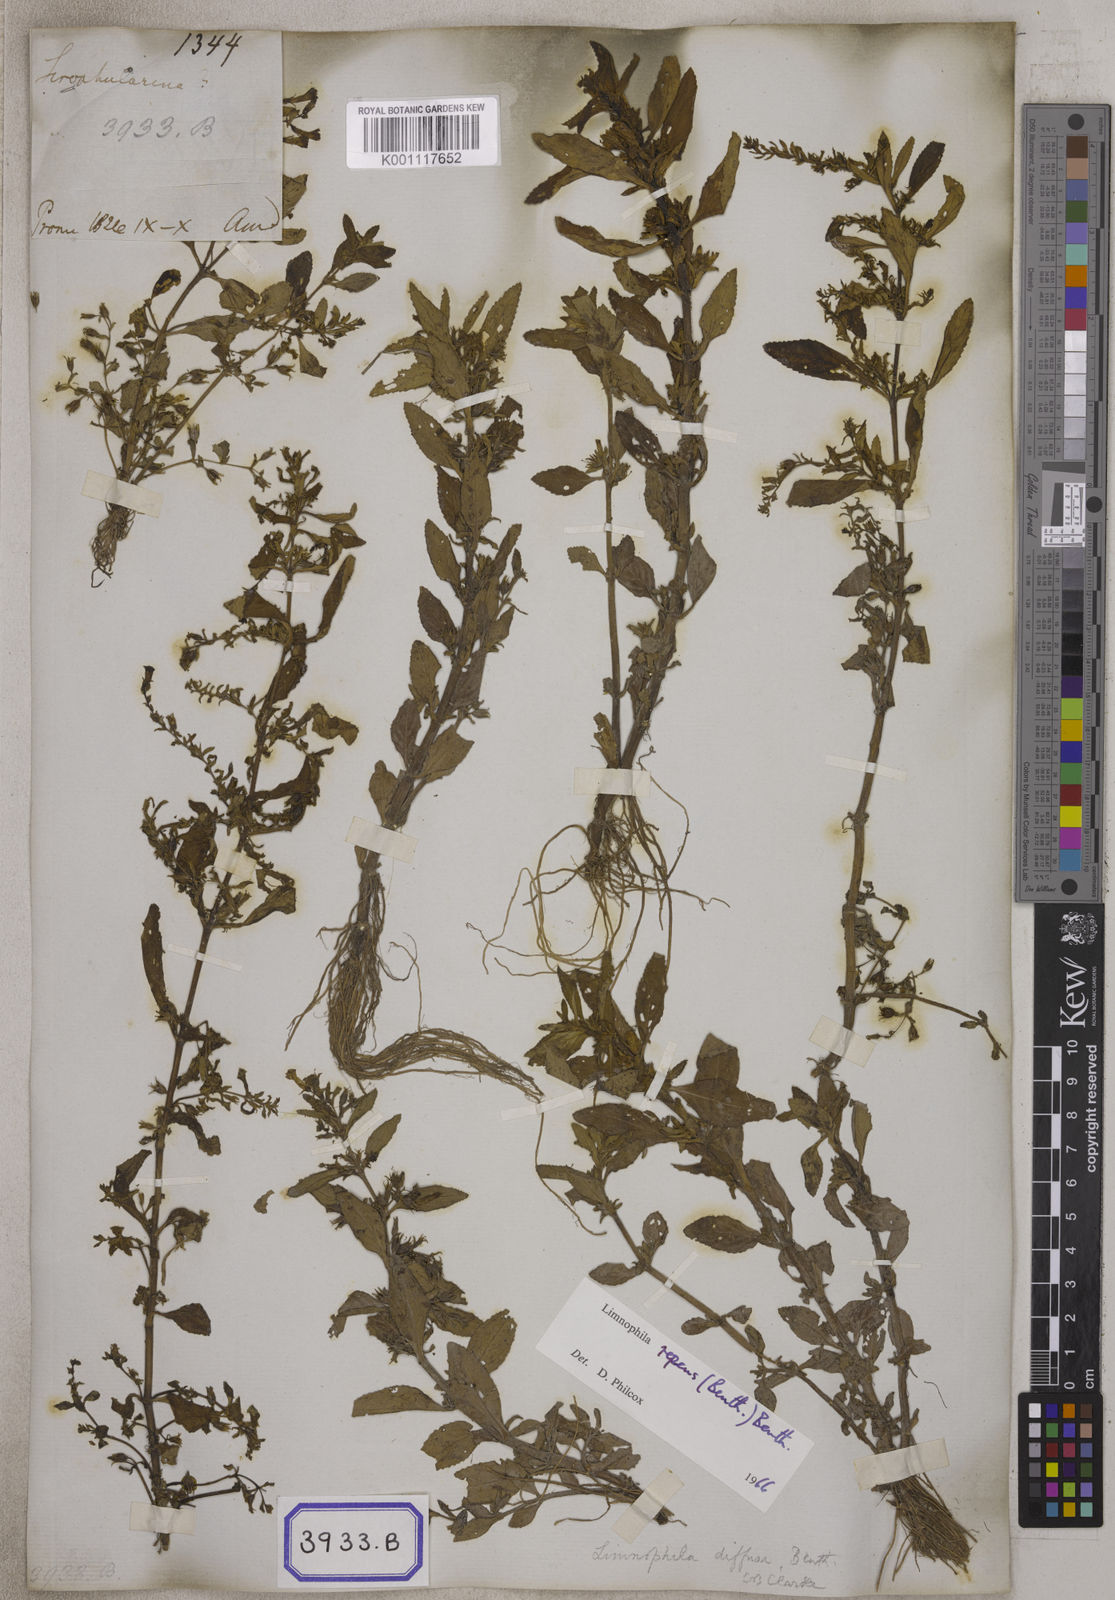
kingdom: Plantae
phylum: Tracheophyta
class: Magnoliopsida
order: Lamiales
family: Plantaginaceae
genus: Limnophila
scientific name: Limnophila pulcherrima
